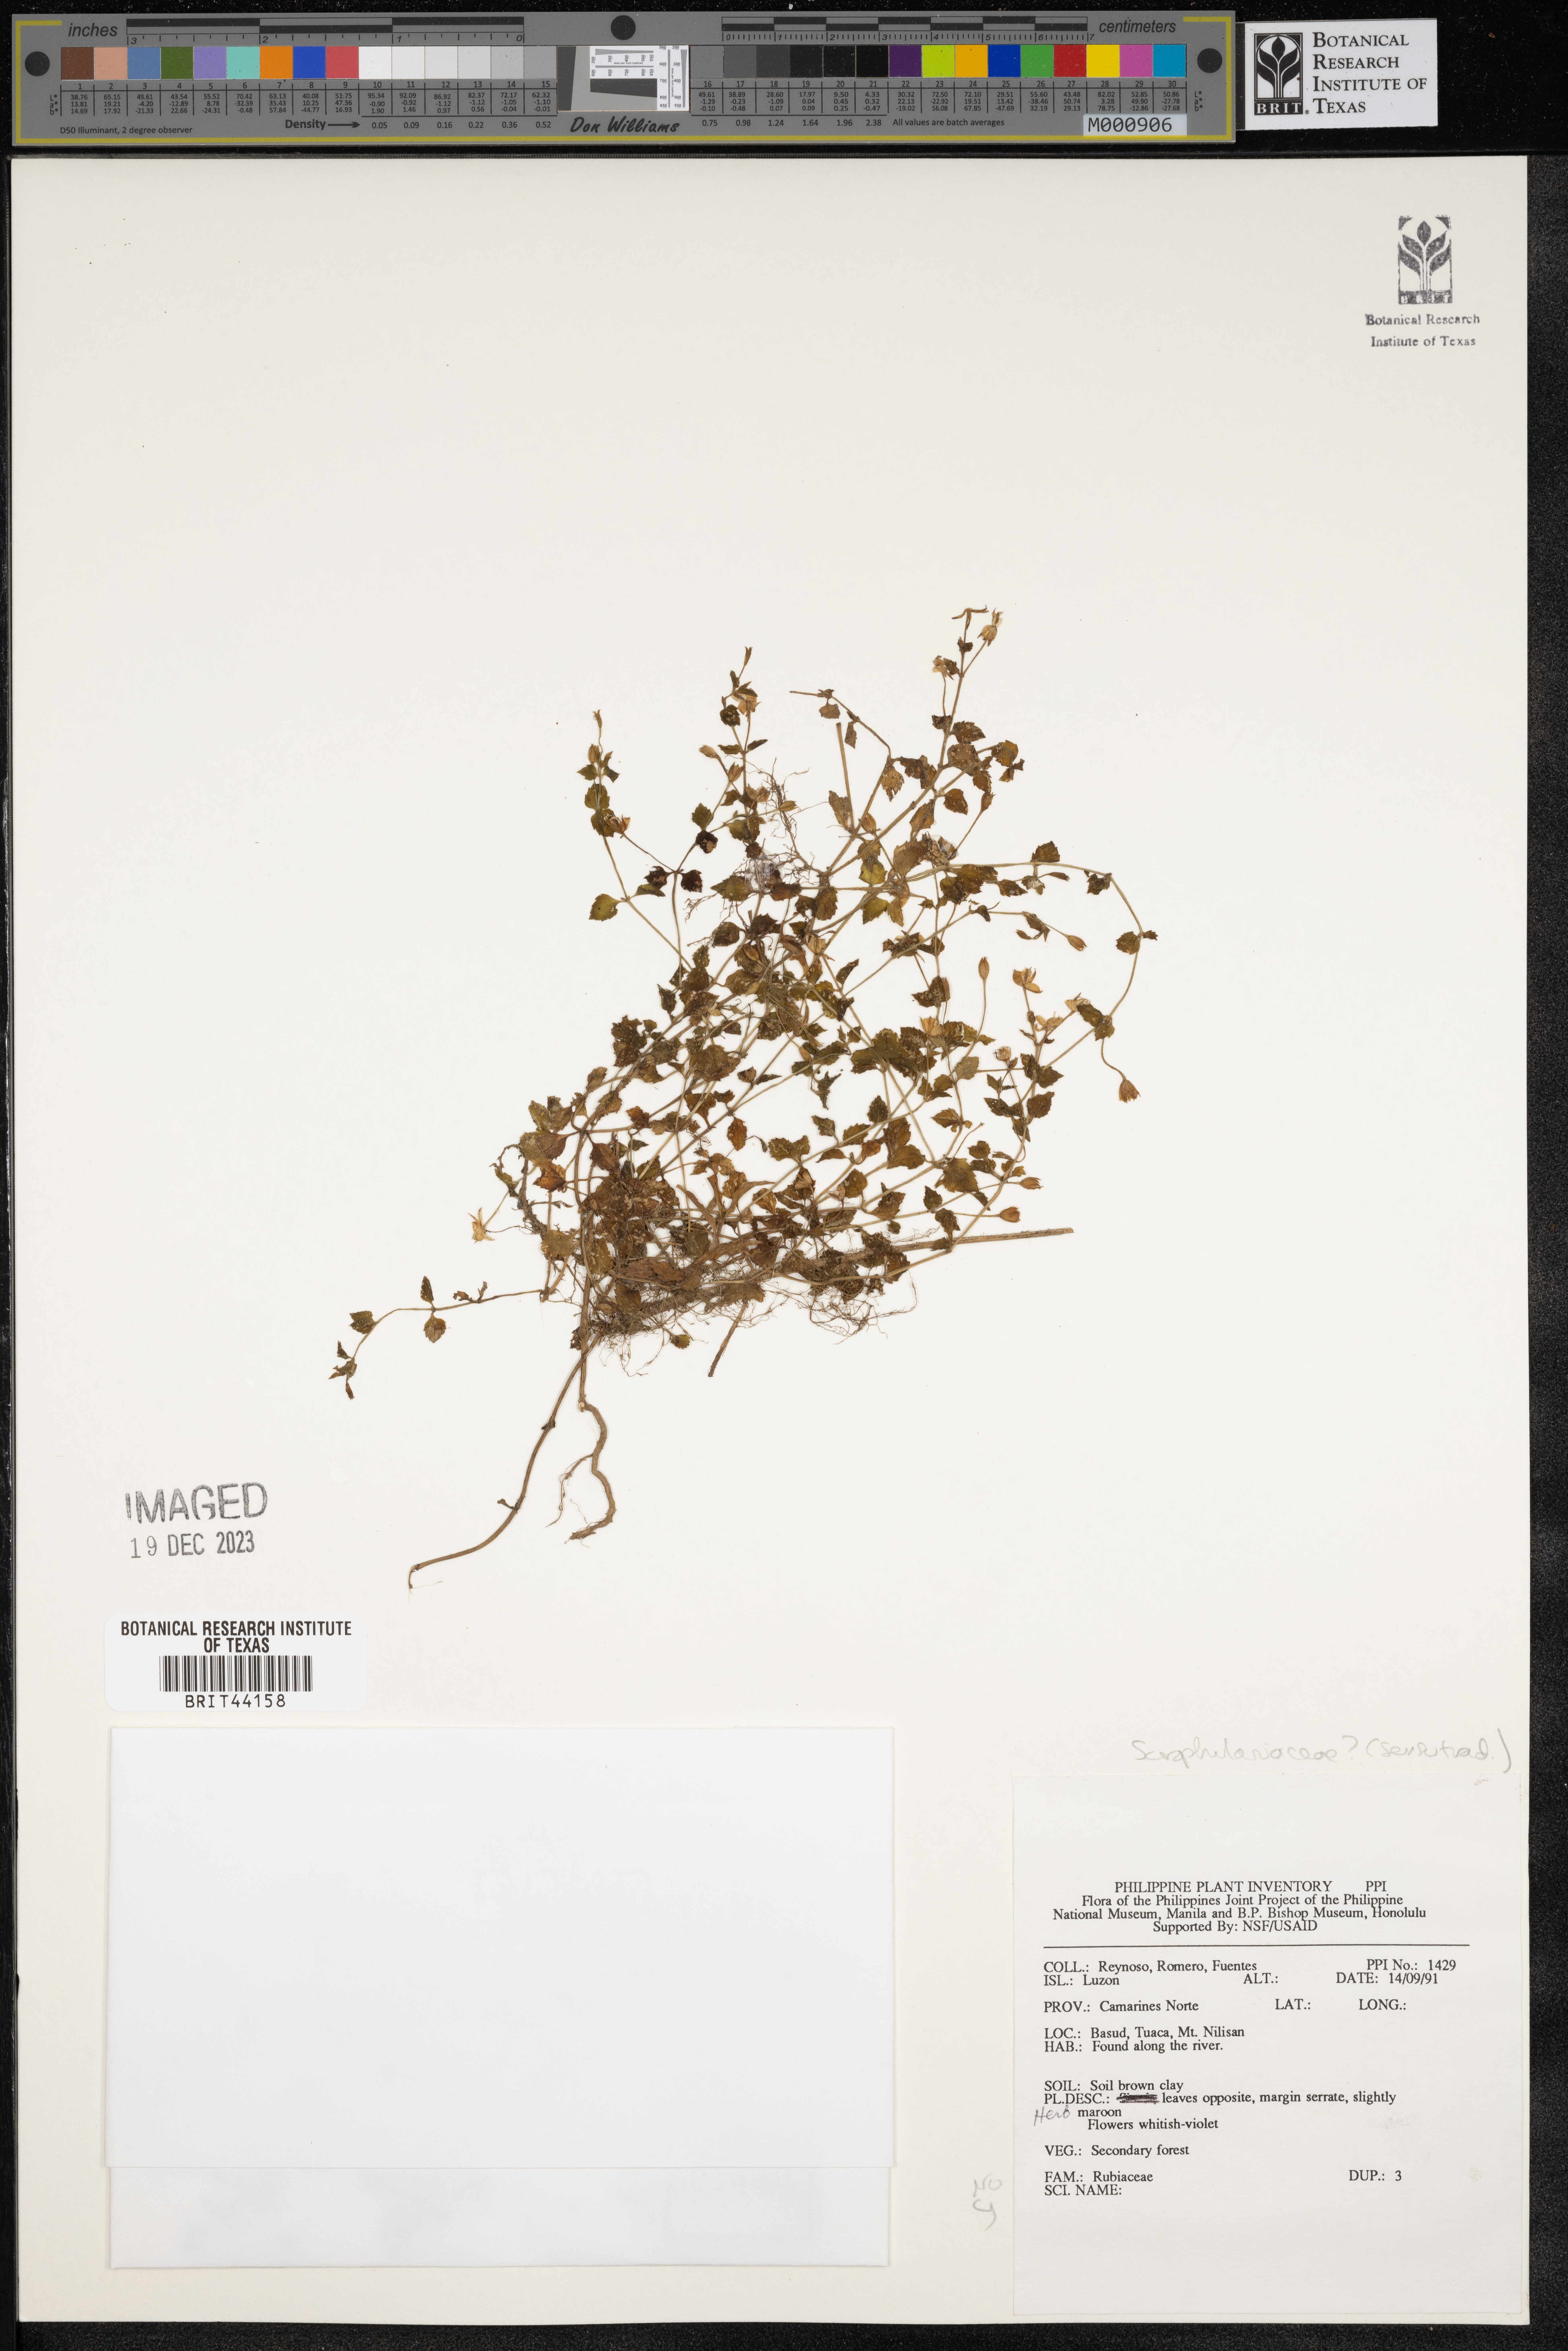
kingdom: Plantae
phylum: Tracheophyta
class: Magnoliopsida
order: Lamiales
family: Scrophulariaceae
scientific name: Scrophulariaceae
